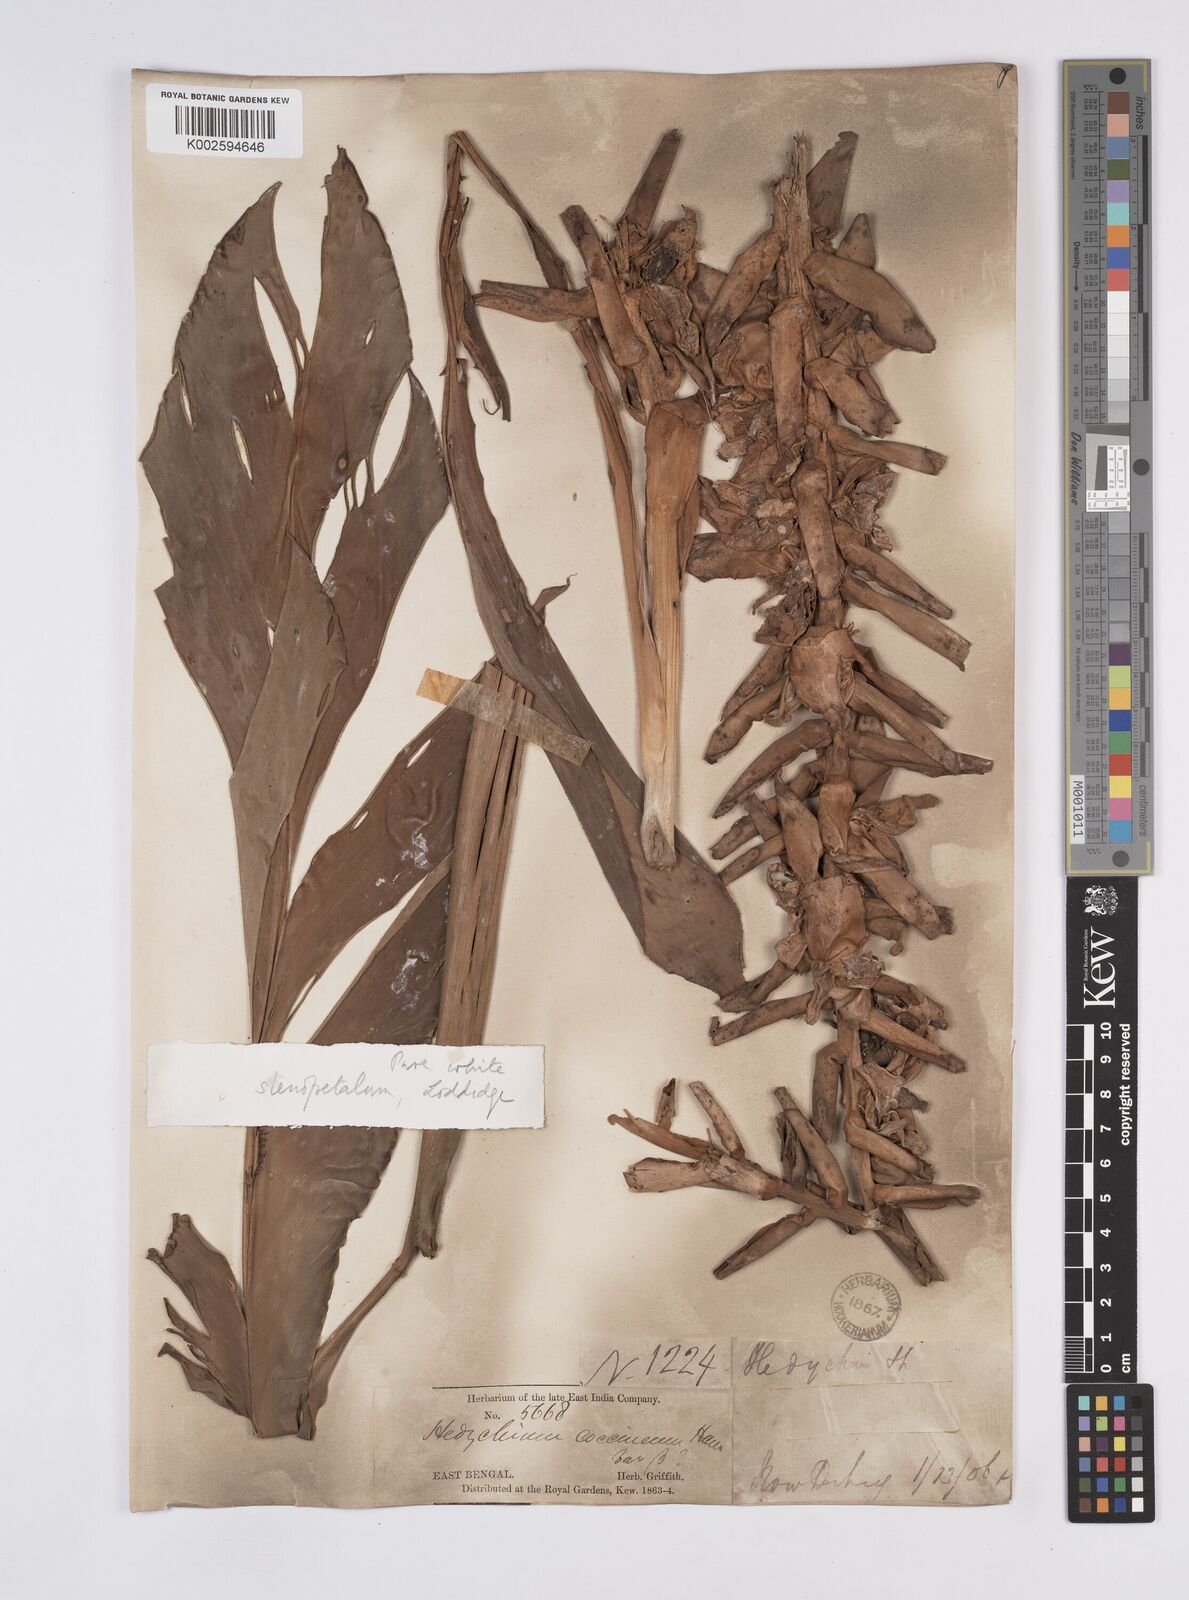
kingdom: Plantae
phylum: Tracheophyta
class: Liliopsida
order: Zingiberales
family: Zingiberaceae
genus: Hedychium
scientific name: Hedychium stenopetalum
